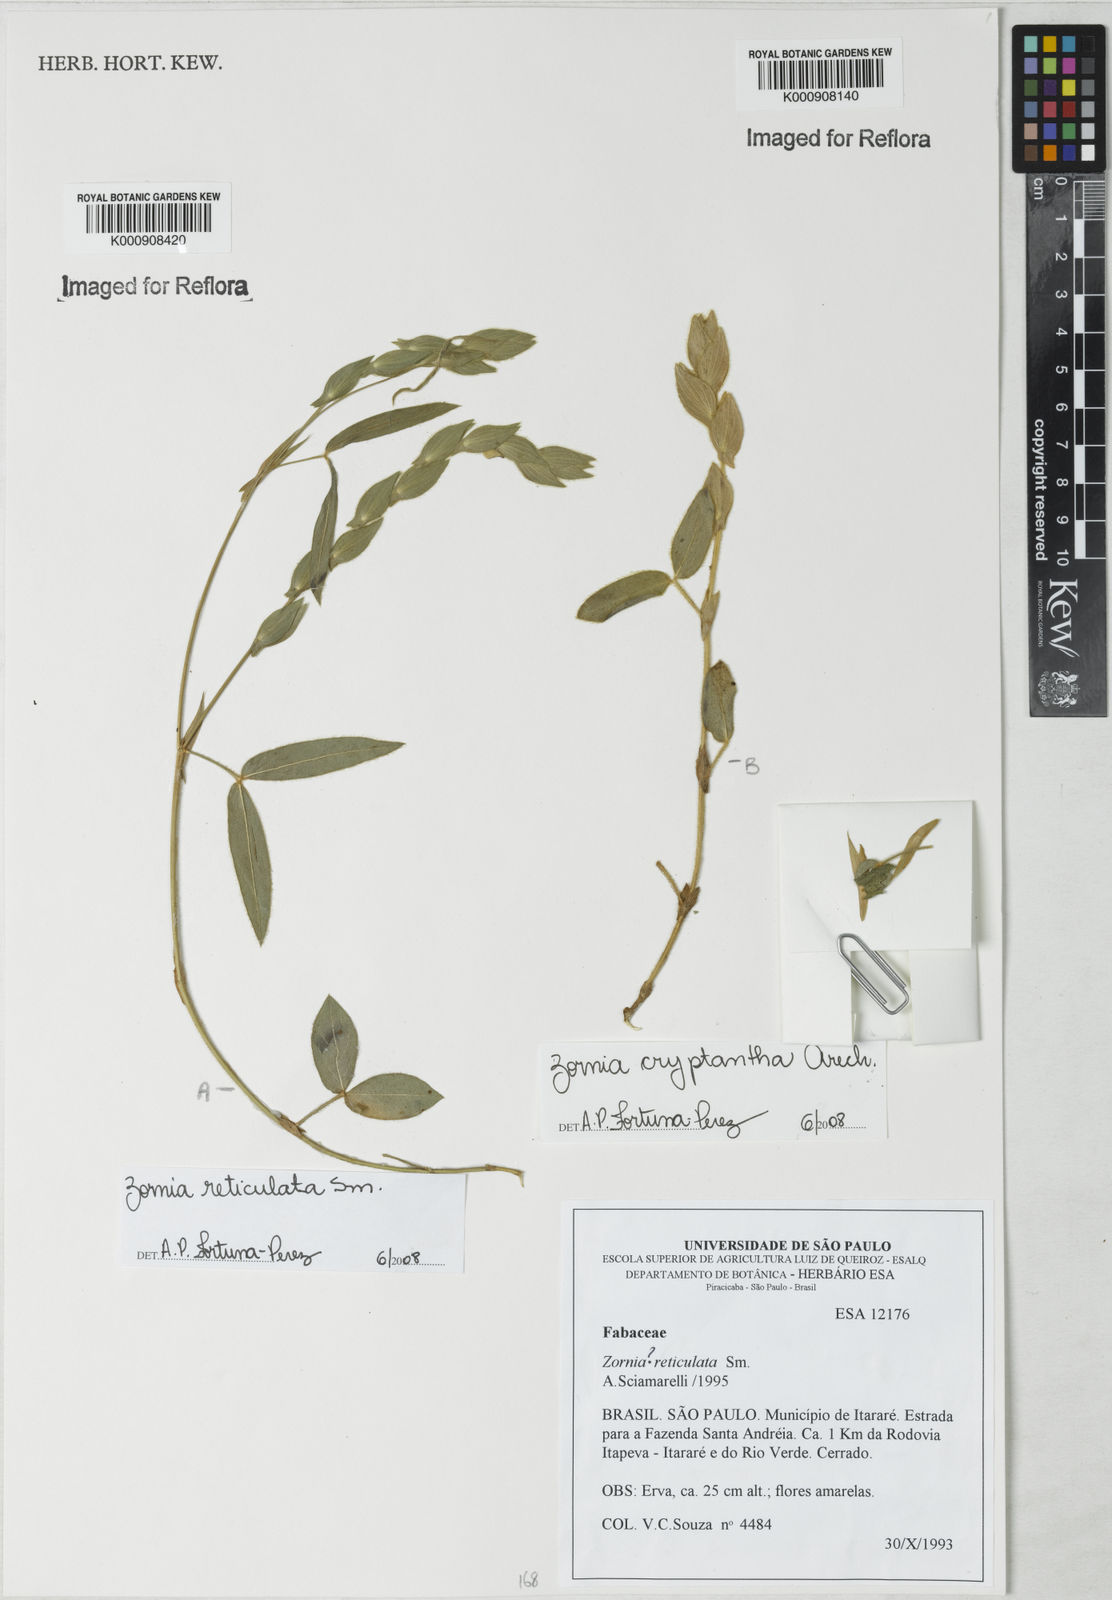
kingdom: Plantae
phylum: Tracheophyta
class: Magnoliopsida
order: Fabales
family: Fabaceae
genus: Zornia
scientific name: Zornia reticulata
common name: Reticulate viperina
